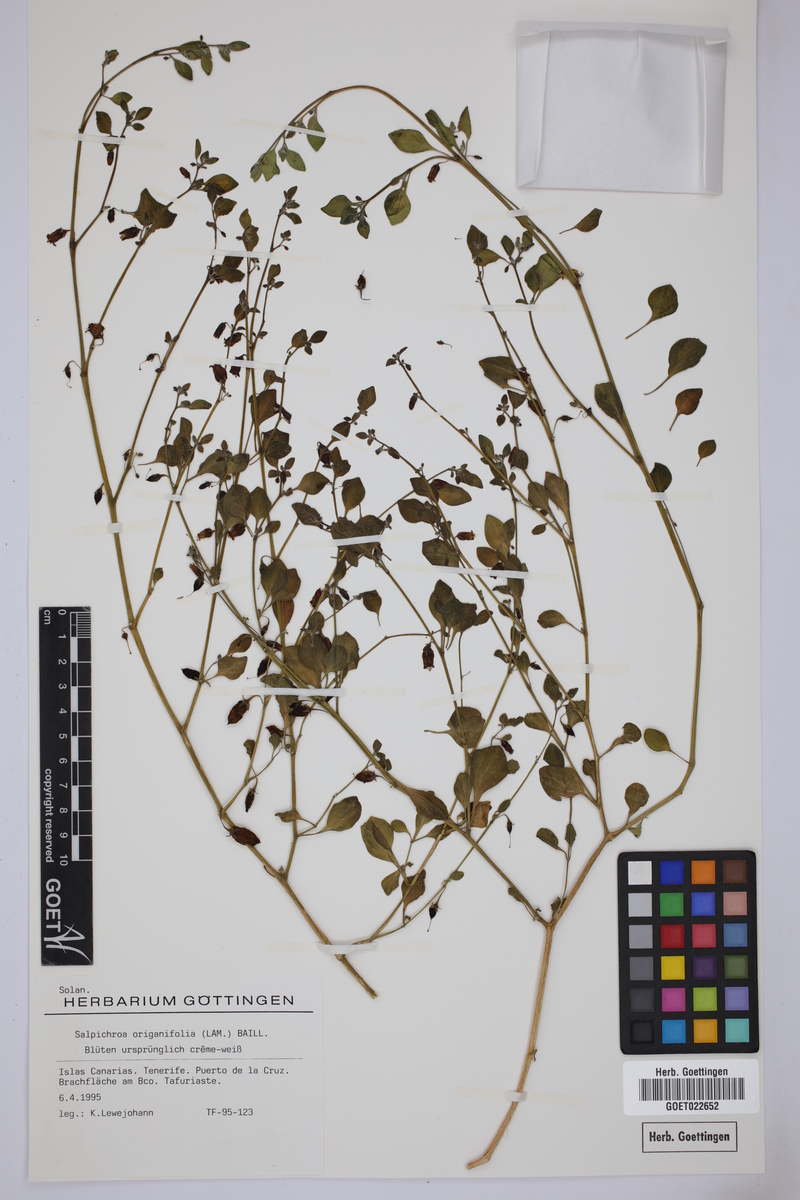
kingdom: Plantae
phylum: Tracheophyta
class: Magnoliopsida
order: Solanales
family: Solanaceae
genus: Salpichroa
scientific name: Salpichroa origanifolia
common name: Lily-of-the-valley-vine
